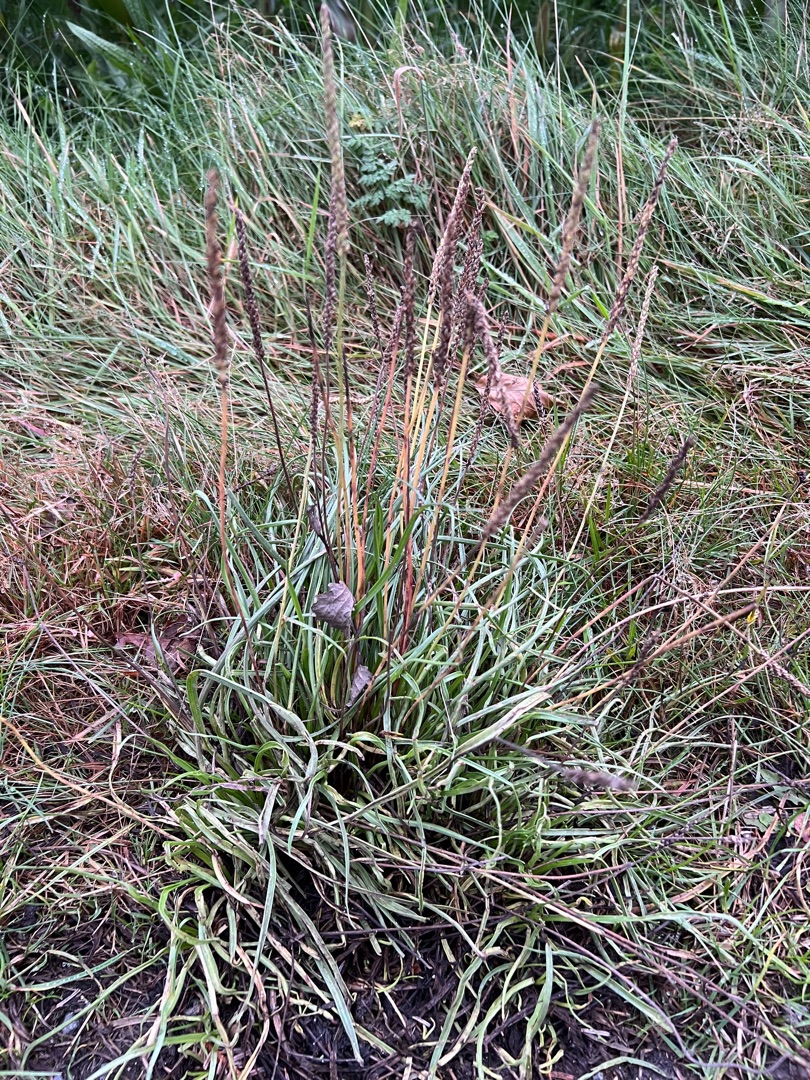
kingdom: Plantae
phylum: Tracheophyta
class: Magnoliopsida
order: Lamiales
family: Plantaginaceae
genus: Plantago
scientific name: Plantago maritima
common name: Strand-vejbred
